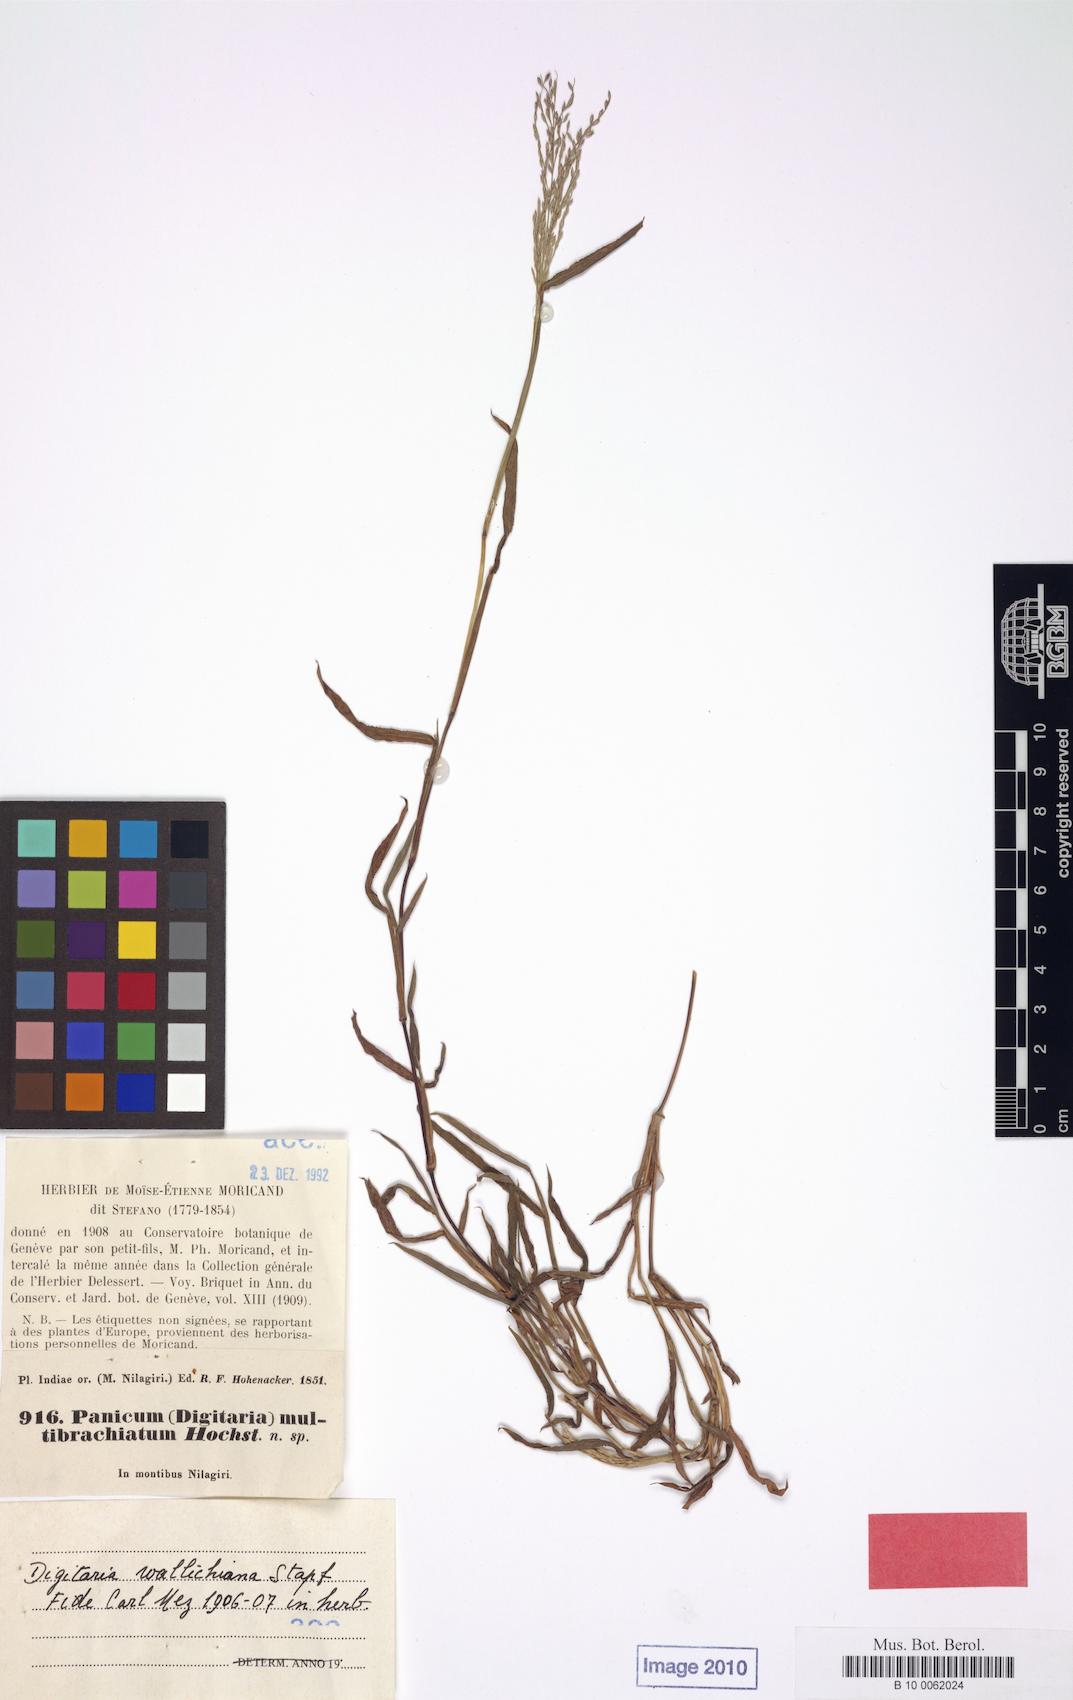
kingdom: Plantae
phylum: Tracheophyta
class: Liliopsida
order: Poales
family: Poaceae
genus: Digitaria
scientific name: Digitaria wallichiana
